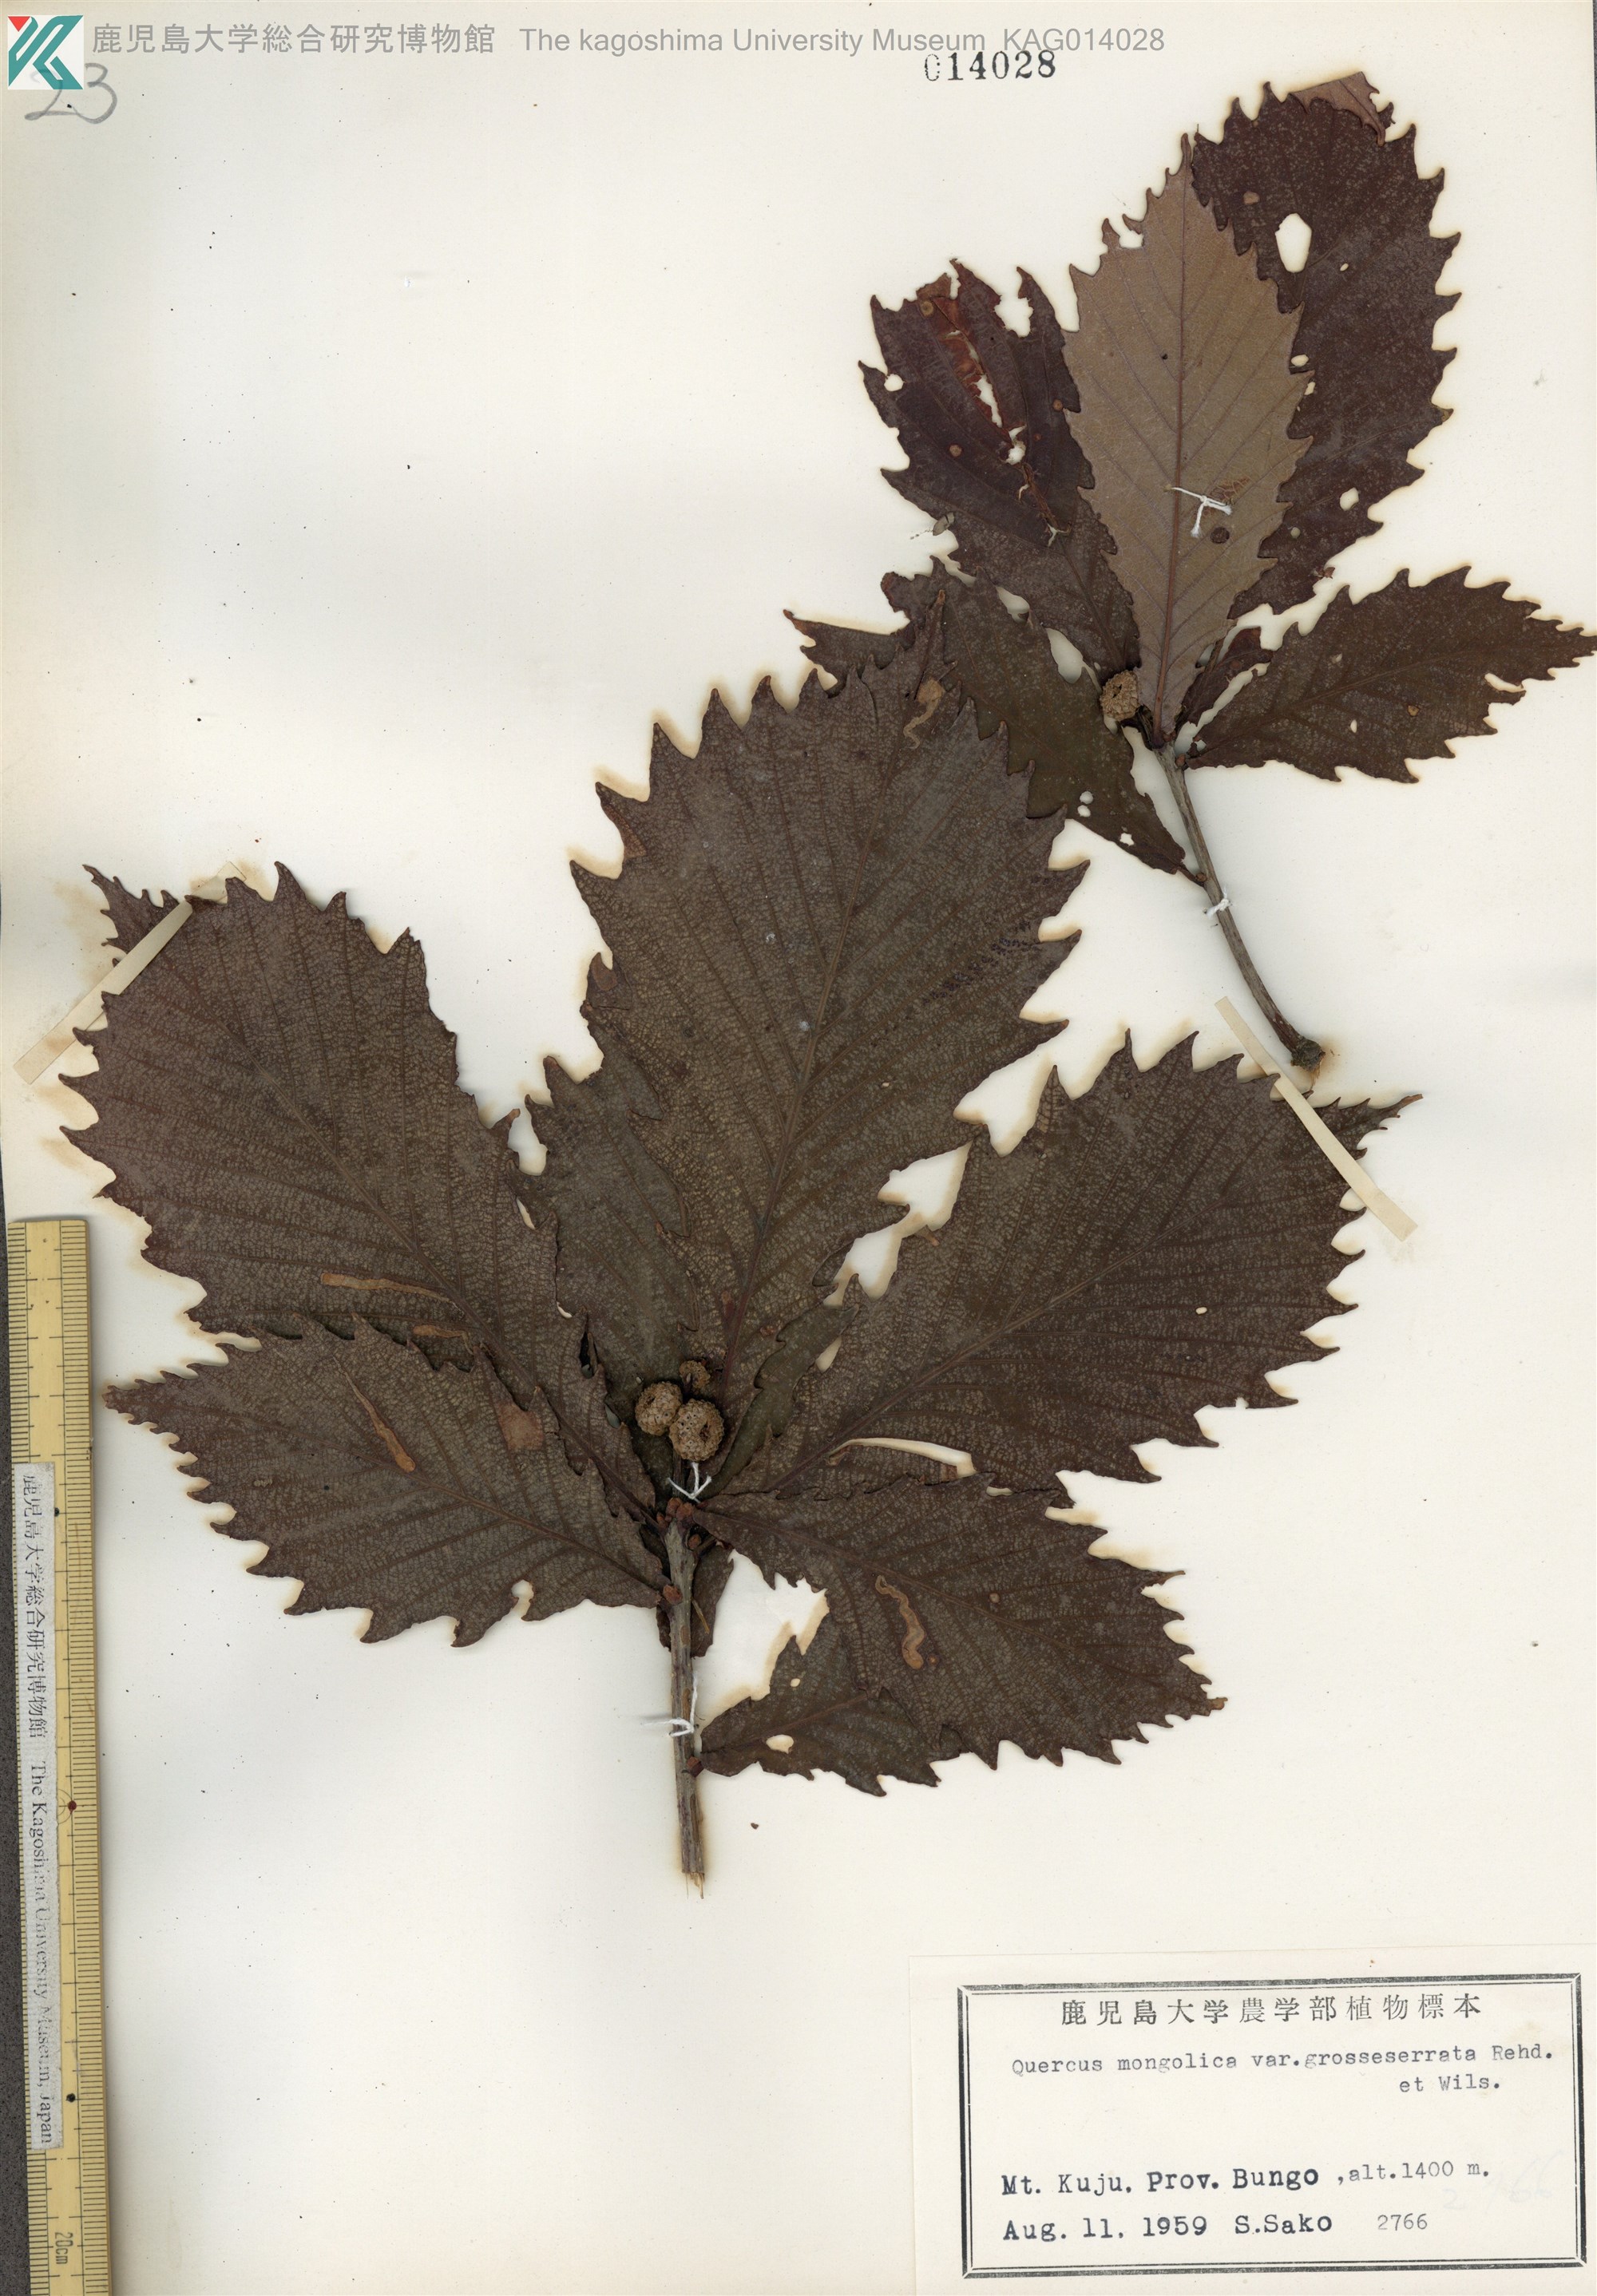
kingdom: Plantae
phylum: Tracheophyta
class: Magnoliopsida
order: Fagales
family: Fagaceae
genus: Quercus
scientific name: Quercus crispula
